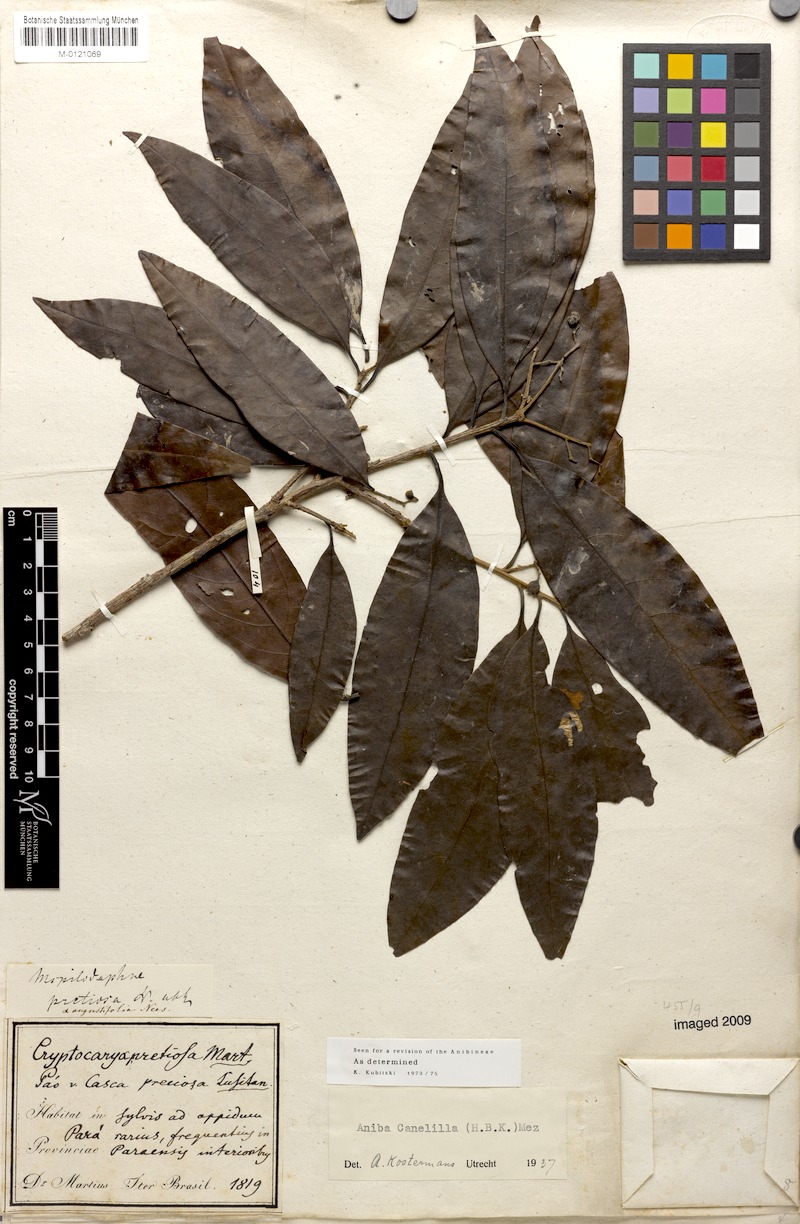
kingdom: Plantae
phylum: Tracheophyta
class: Magnoliopsida
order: Laurales
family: Lauraceae
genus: Aniba
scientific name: Aniba canelilla
